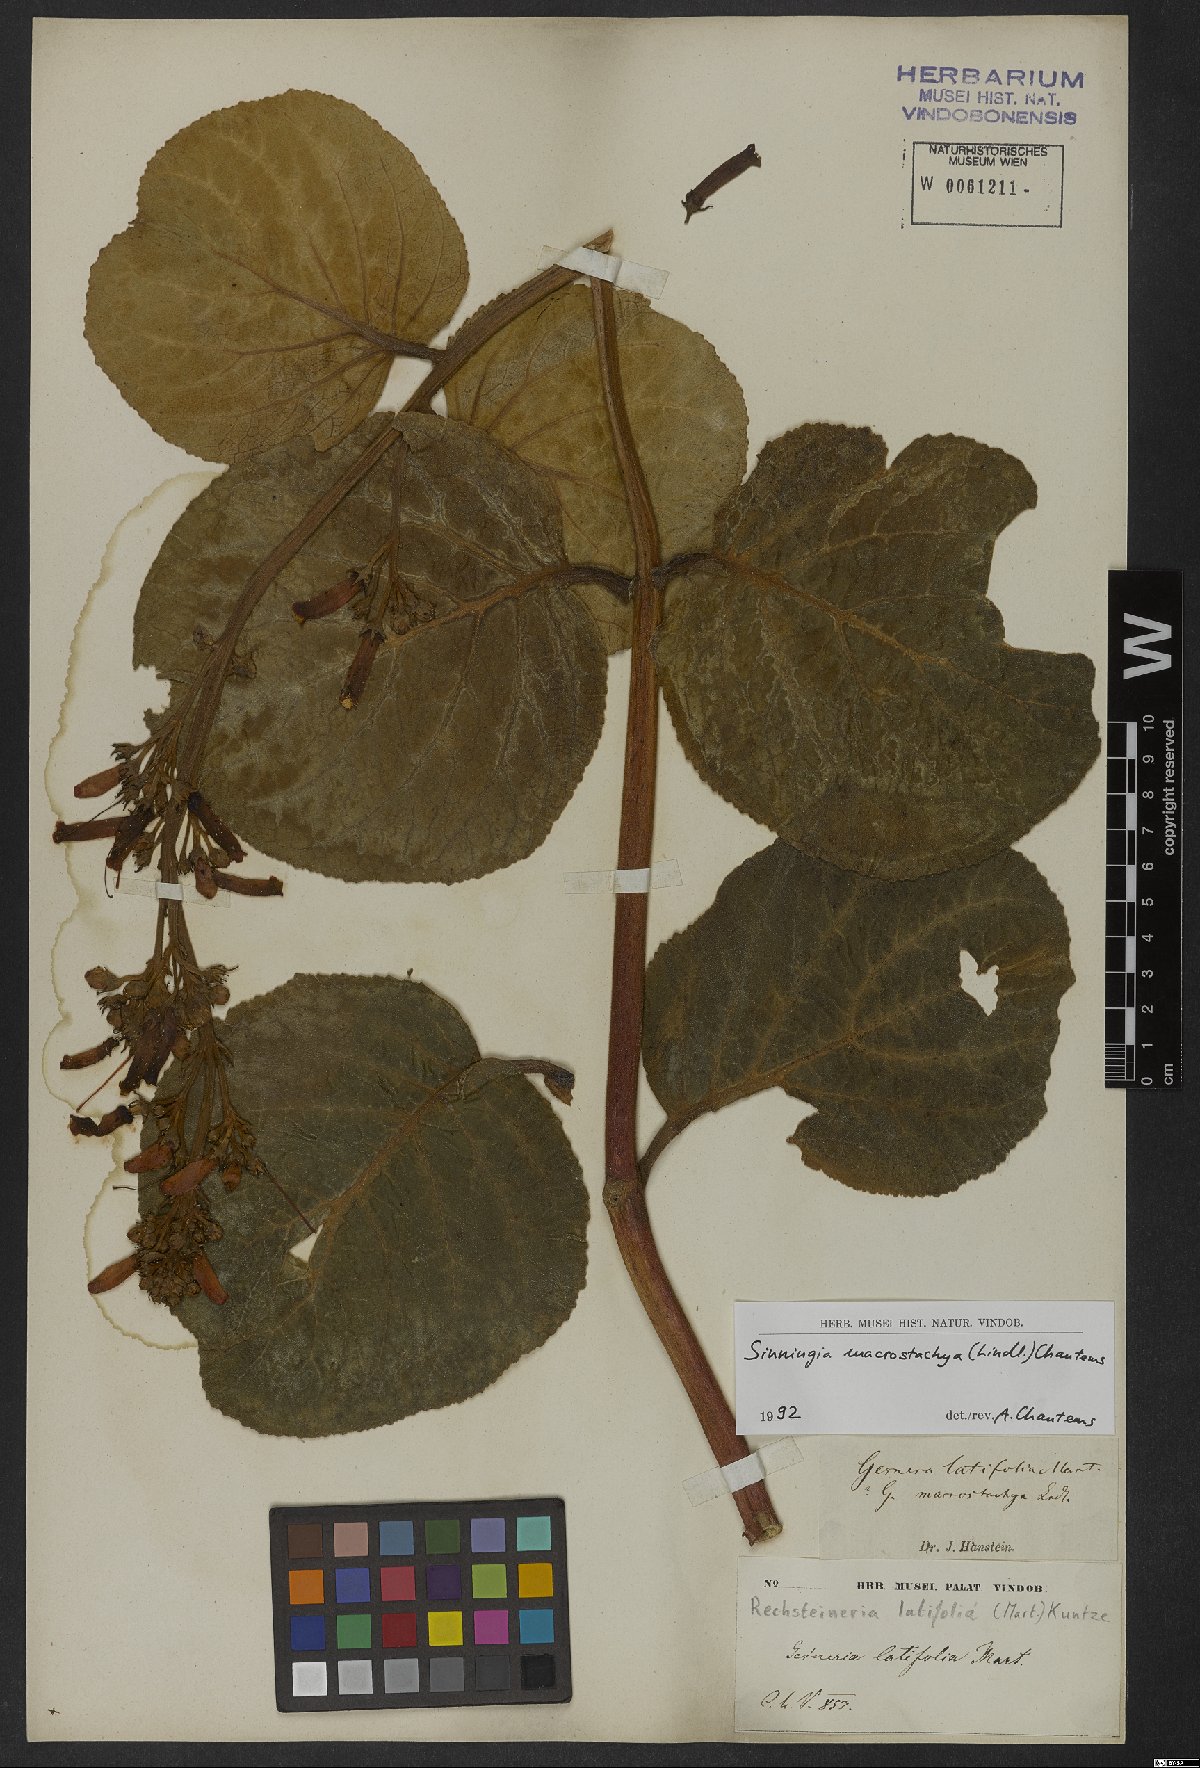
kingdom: Plantae
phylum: Tracheophyta
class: Magnoliopsida
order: Lamiales
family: Gesneriaceae
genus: Sinningia
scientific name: Sinningia macrostachya
